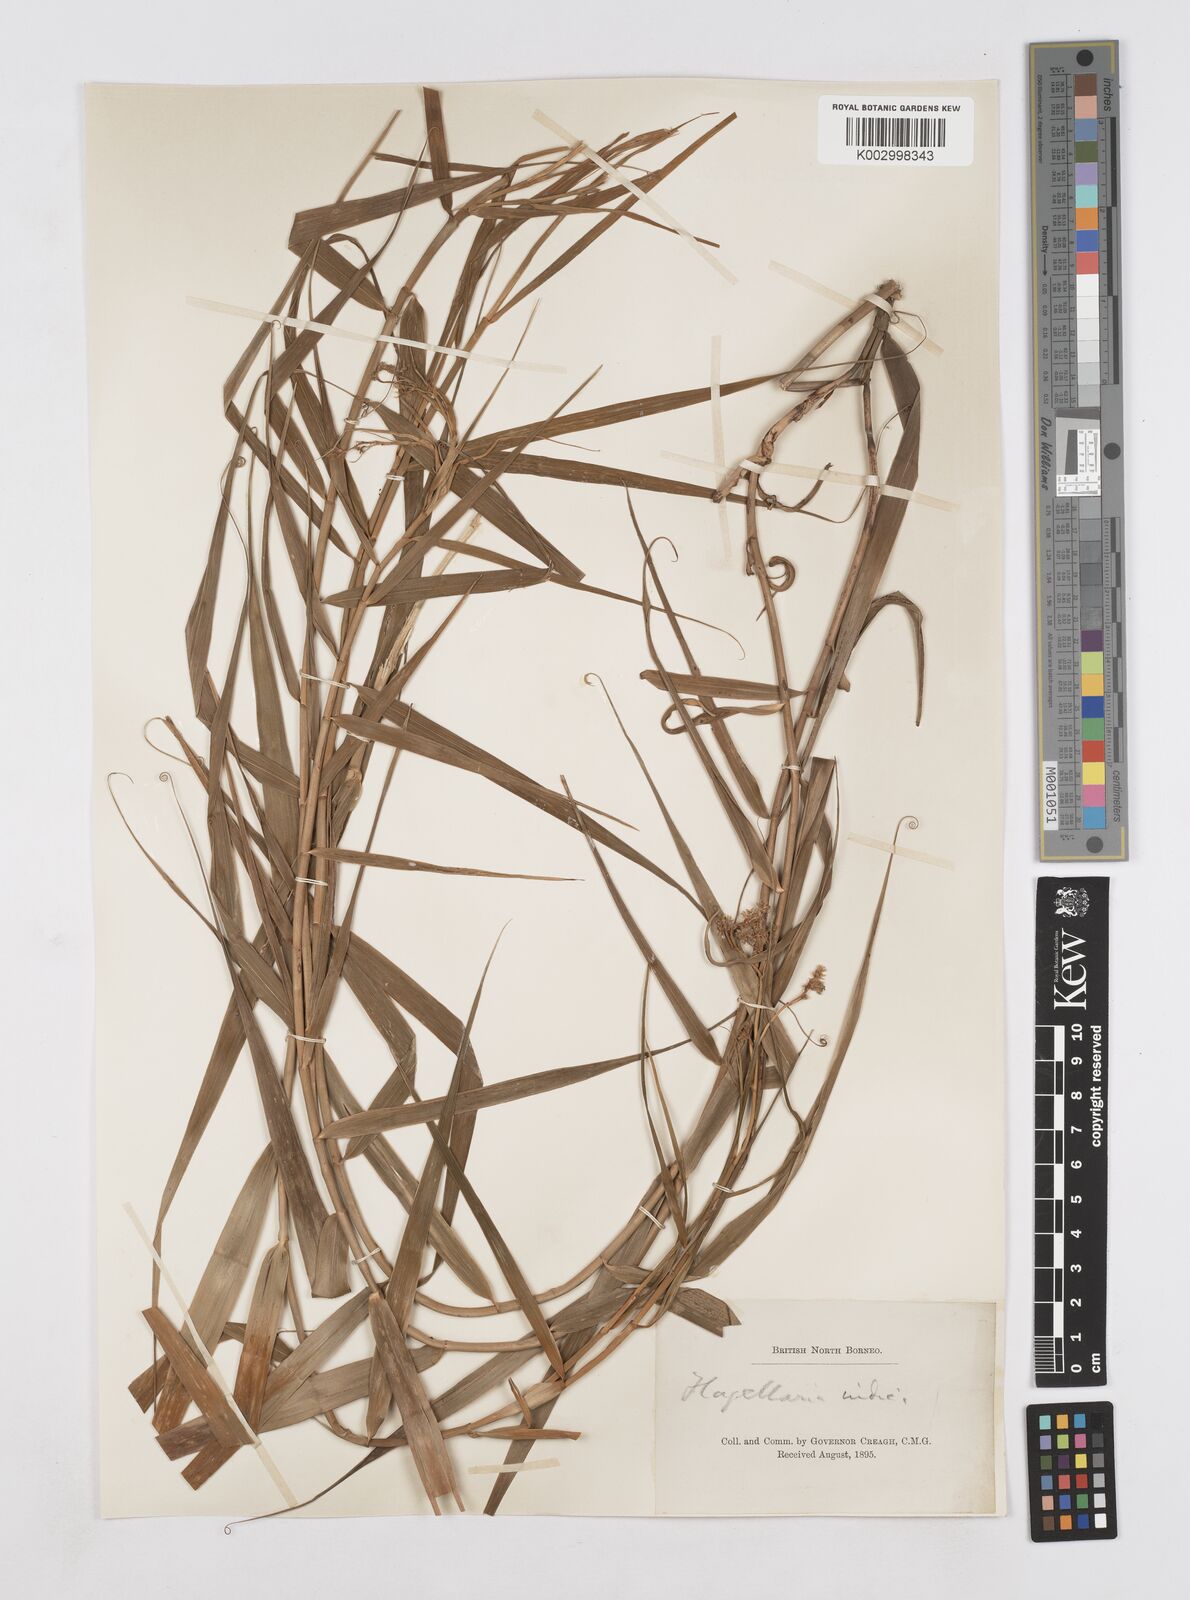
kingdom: Plantae
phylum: Tracheophyta
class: Liliopsida
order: Poales
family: Flagellariaceae
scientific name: Flagellariaceae
